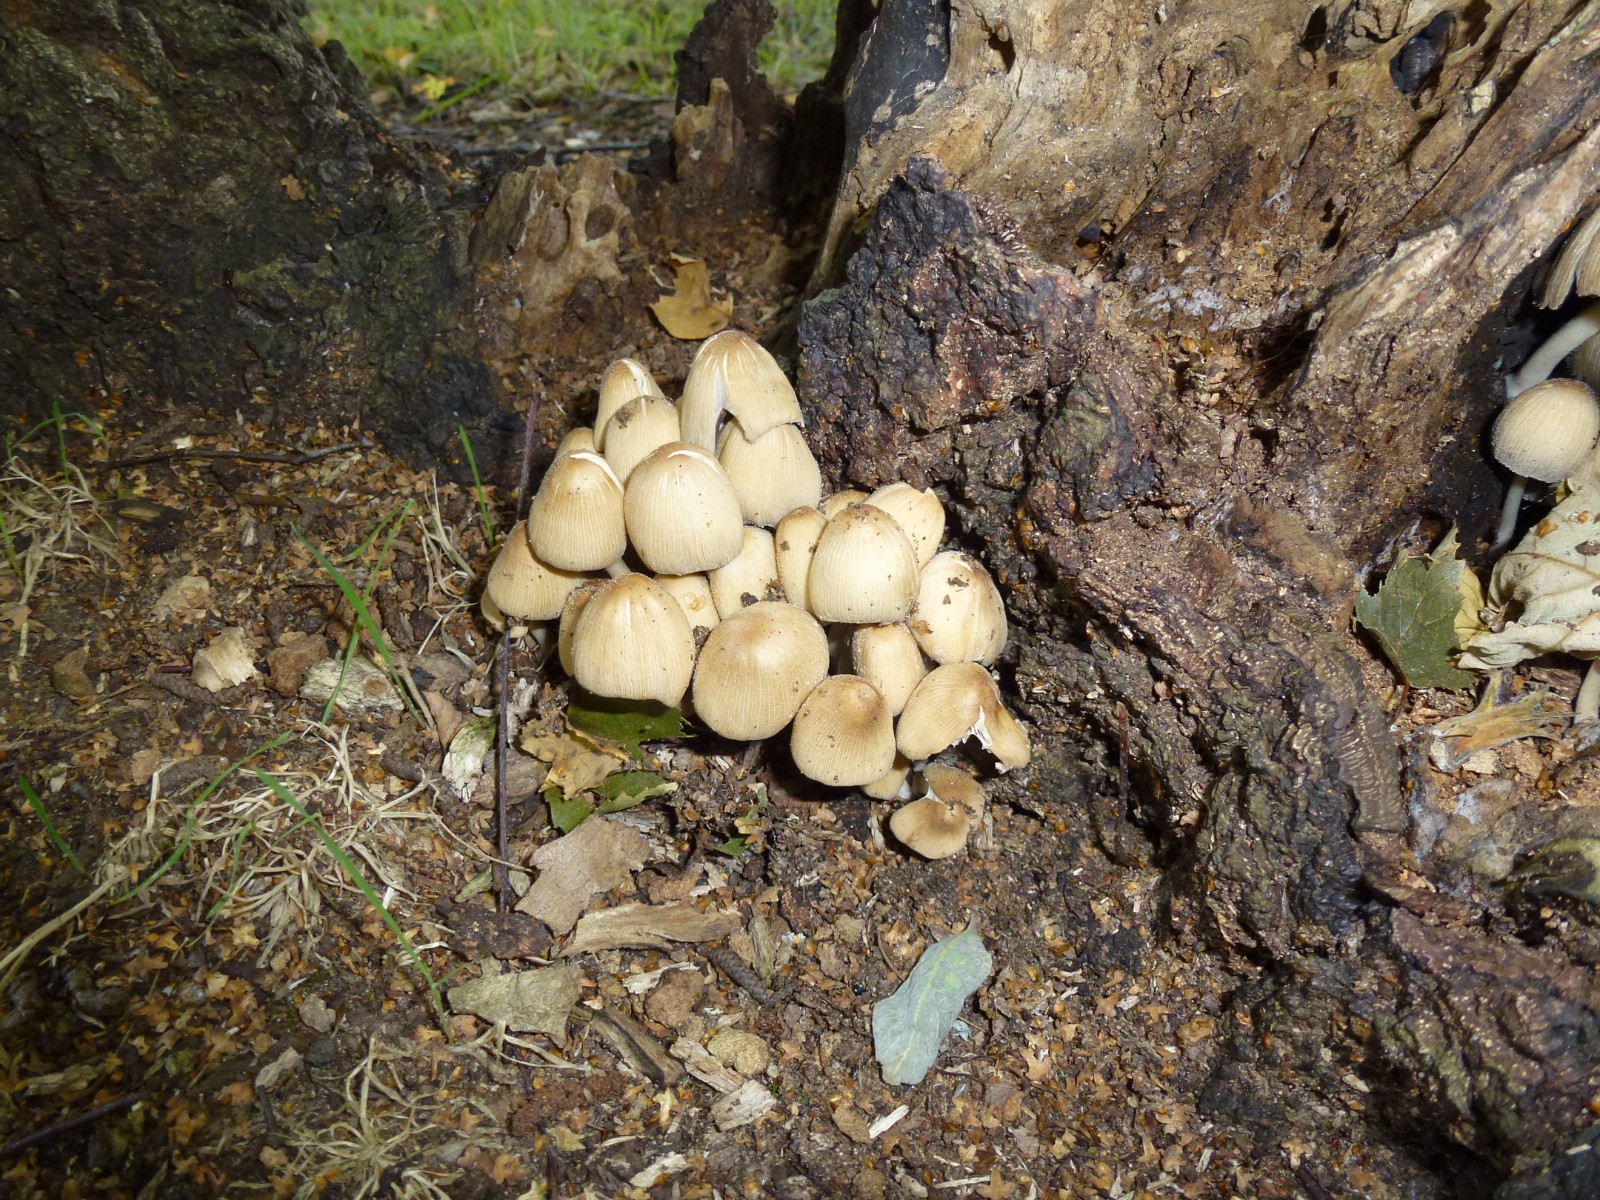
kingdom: Fungi
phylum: Basidiomycota
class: Agaricomycetes
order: Agaricales
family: Psathyrellaceae
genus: Coprinellus
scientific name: Coprinellus
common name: blækhat
